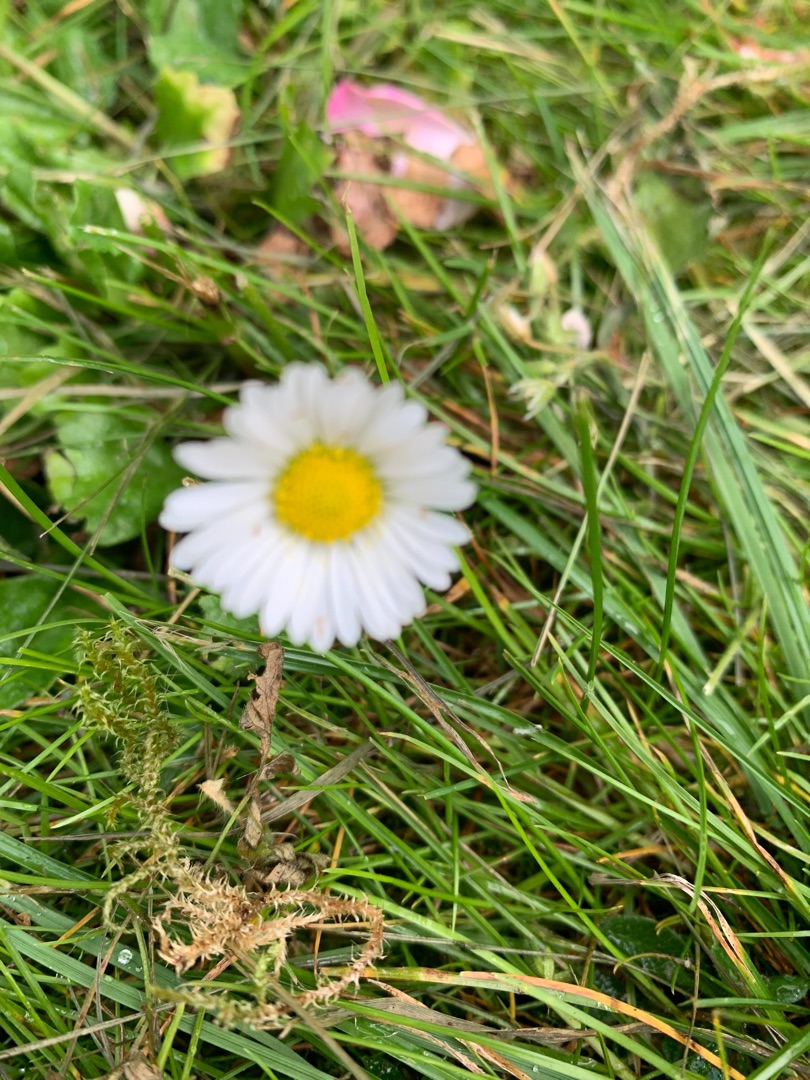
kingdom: Plantae
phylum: Tracheophyta
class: Magnoliopsida
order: Asterales
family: Asteraceae
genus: Bellis
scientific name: Bellis perennis
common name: Tusindfryd
